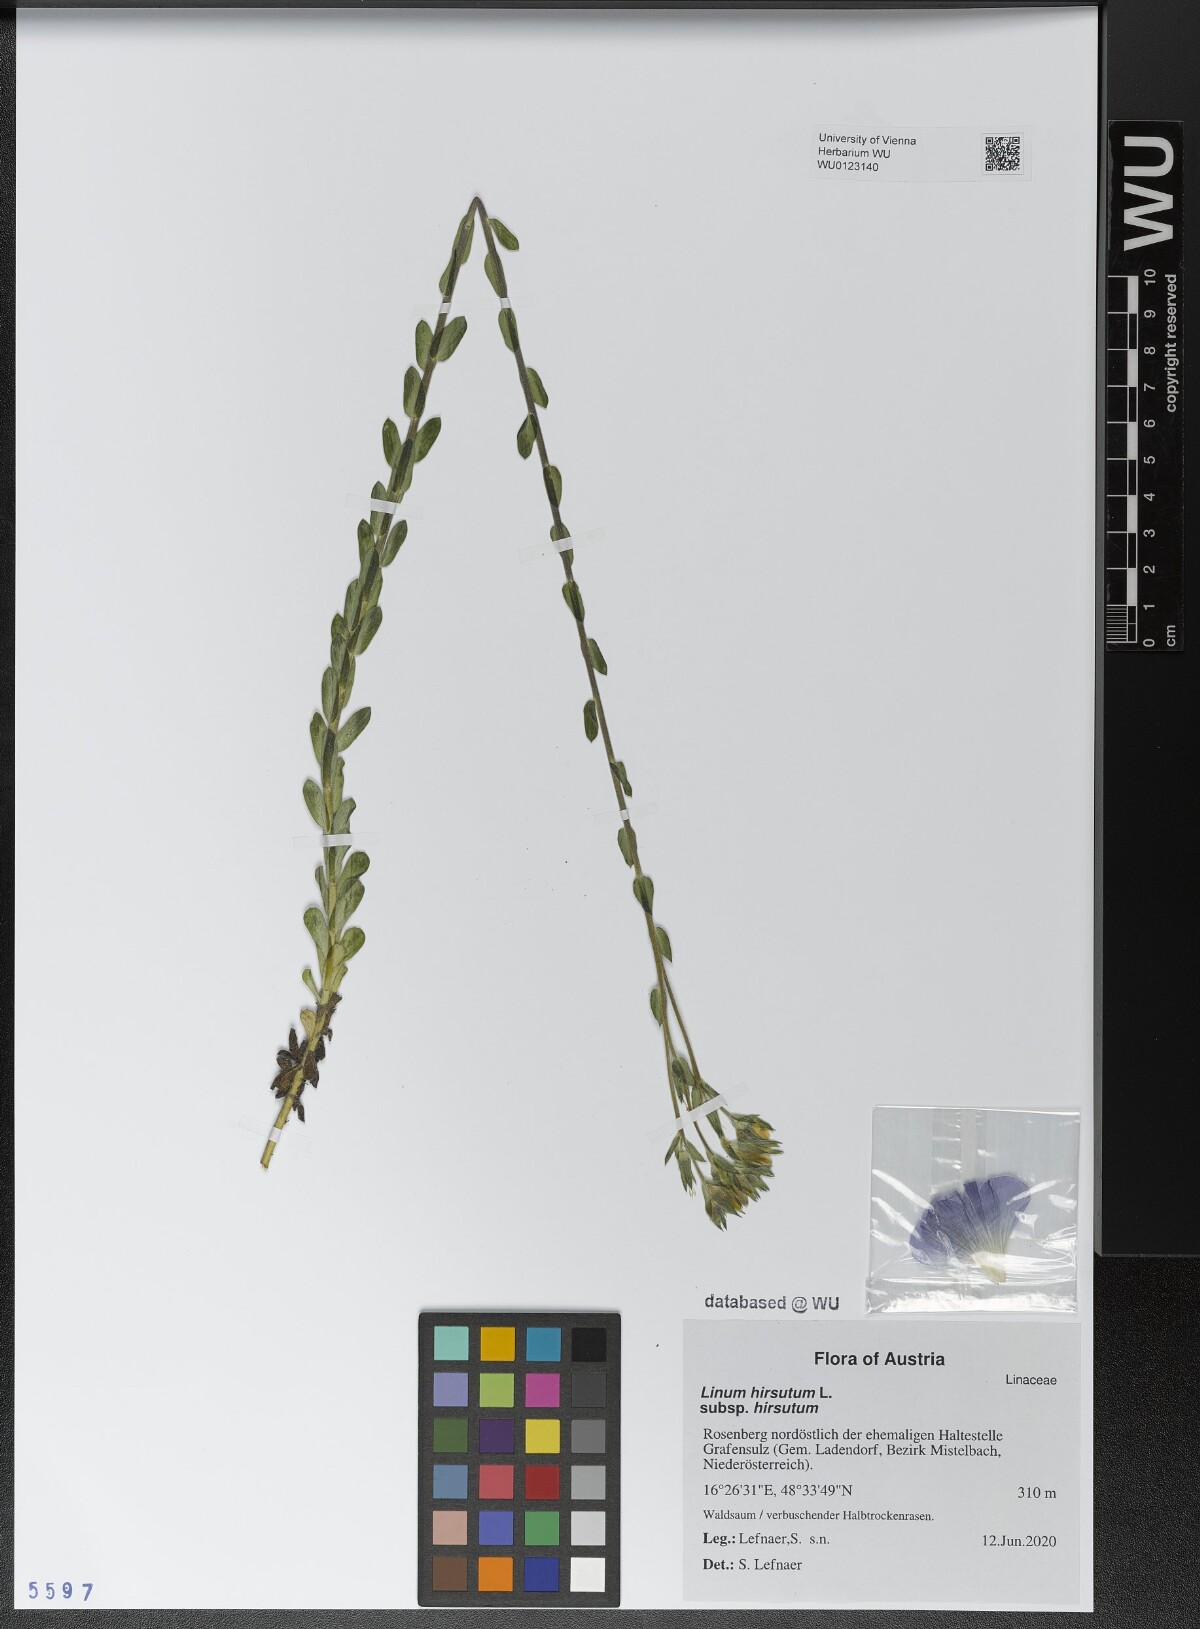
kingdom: Plantae
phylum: Tracheophyta
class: Magnoliopsida
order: Malpighiales
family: Linaceae
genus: Linum
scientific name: Linum hirsutum
